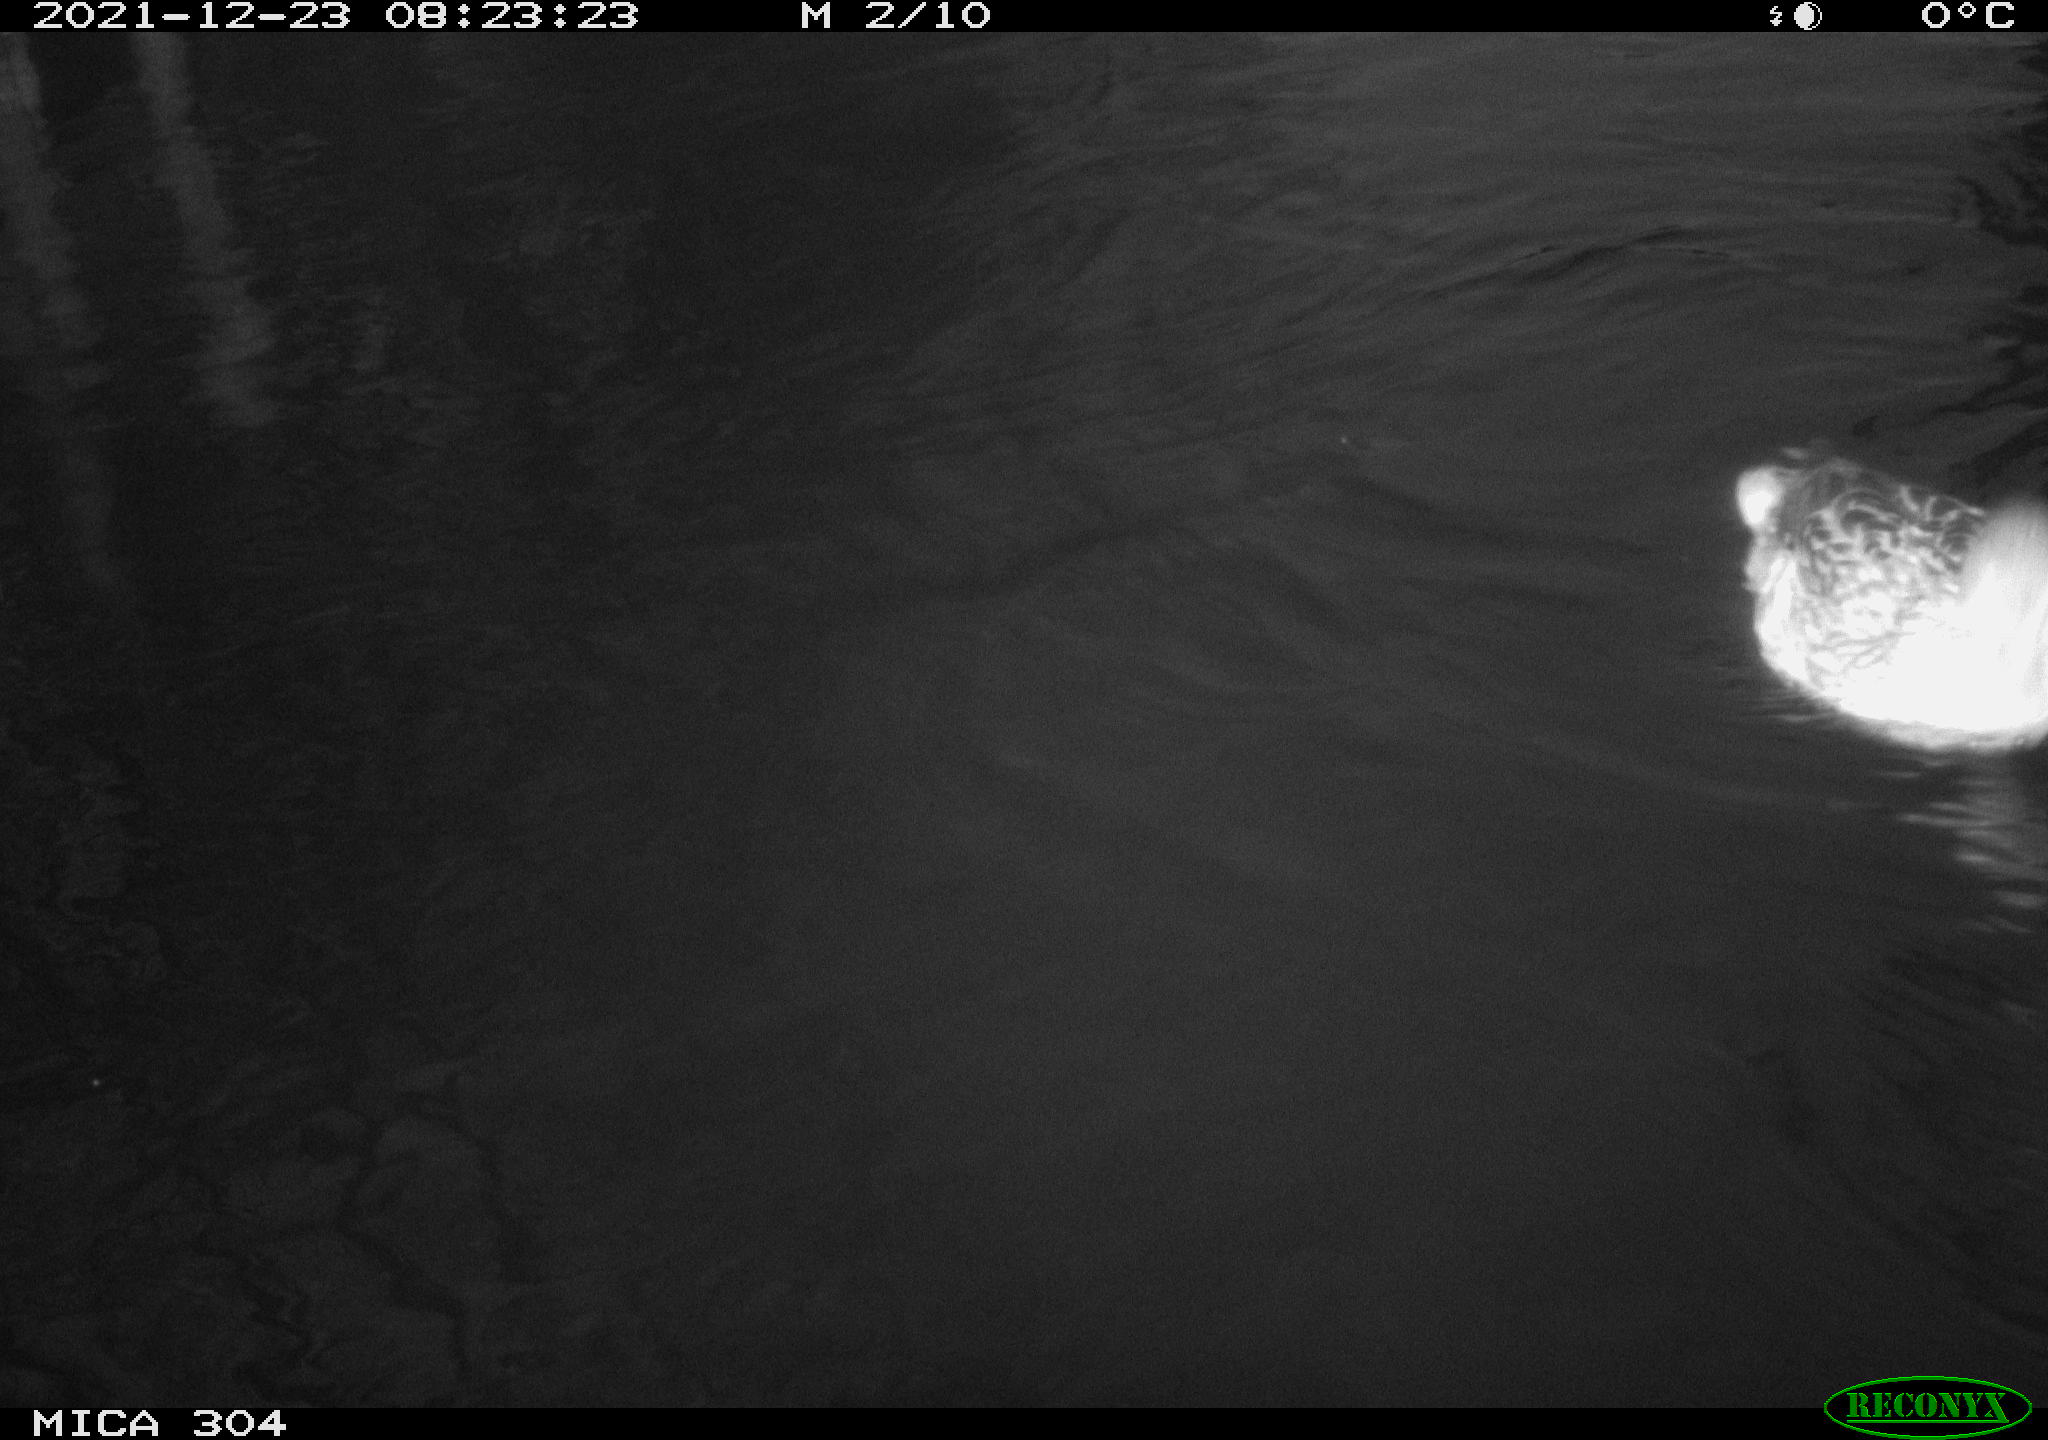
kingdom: Animalia
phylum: Chordata
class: Aves
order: Anseriformes
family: Anatidae
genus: Anas
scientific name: Anas
